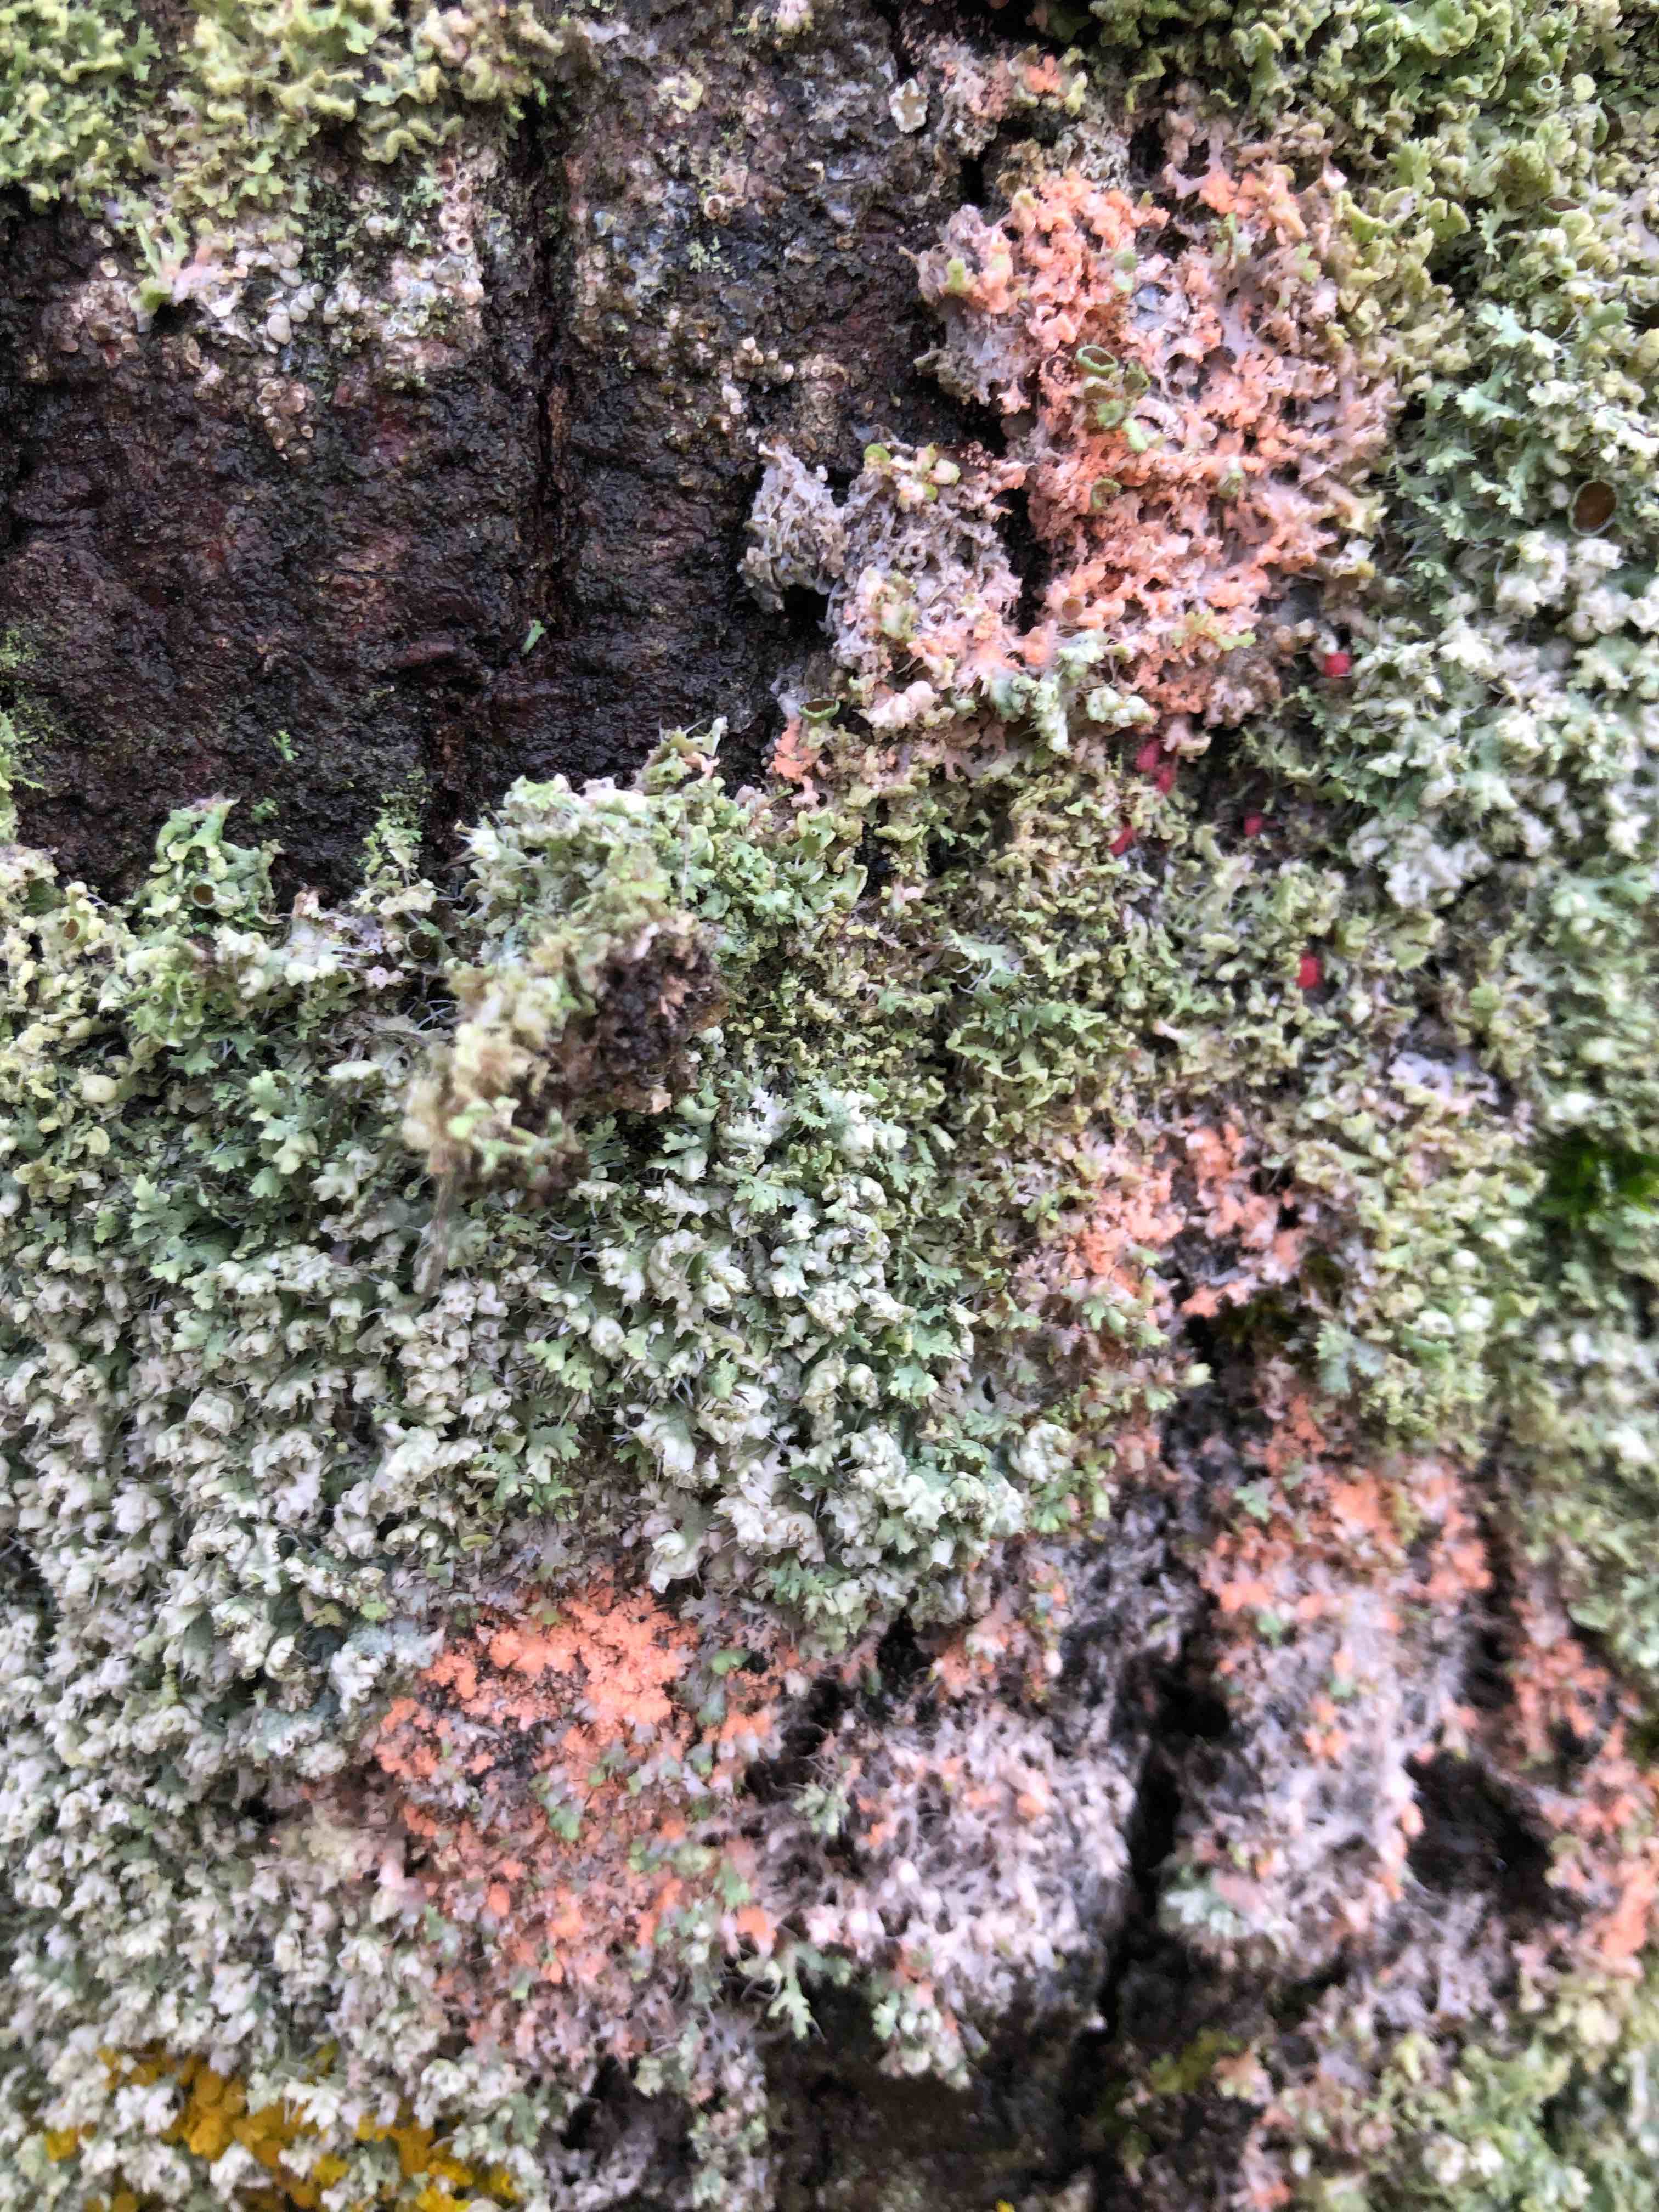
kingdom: Fungi
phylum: Basidiomycota
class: Agaricomycetes
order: Corticiales
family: Corticiaceae
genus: Erythricium
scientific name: Erythricium aurantiacum
